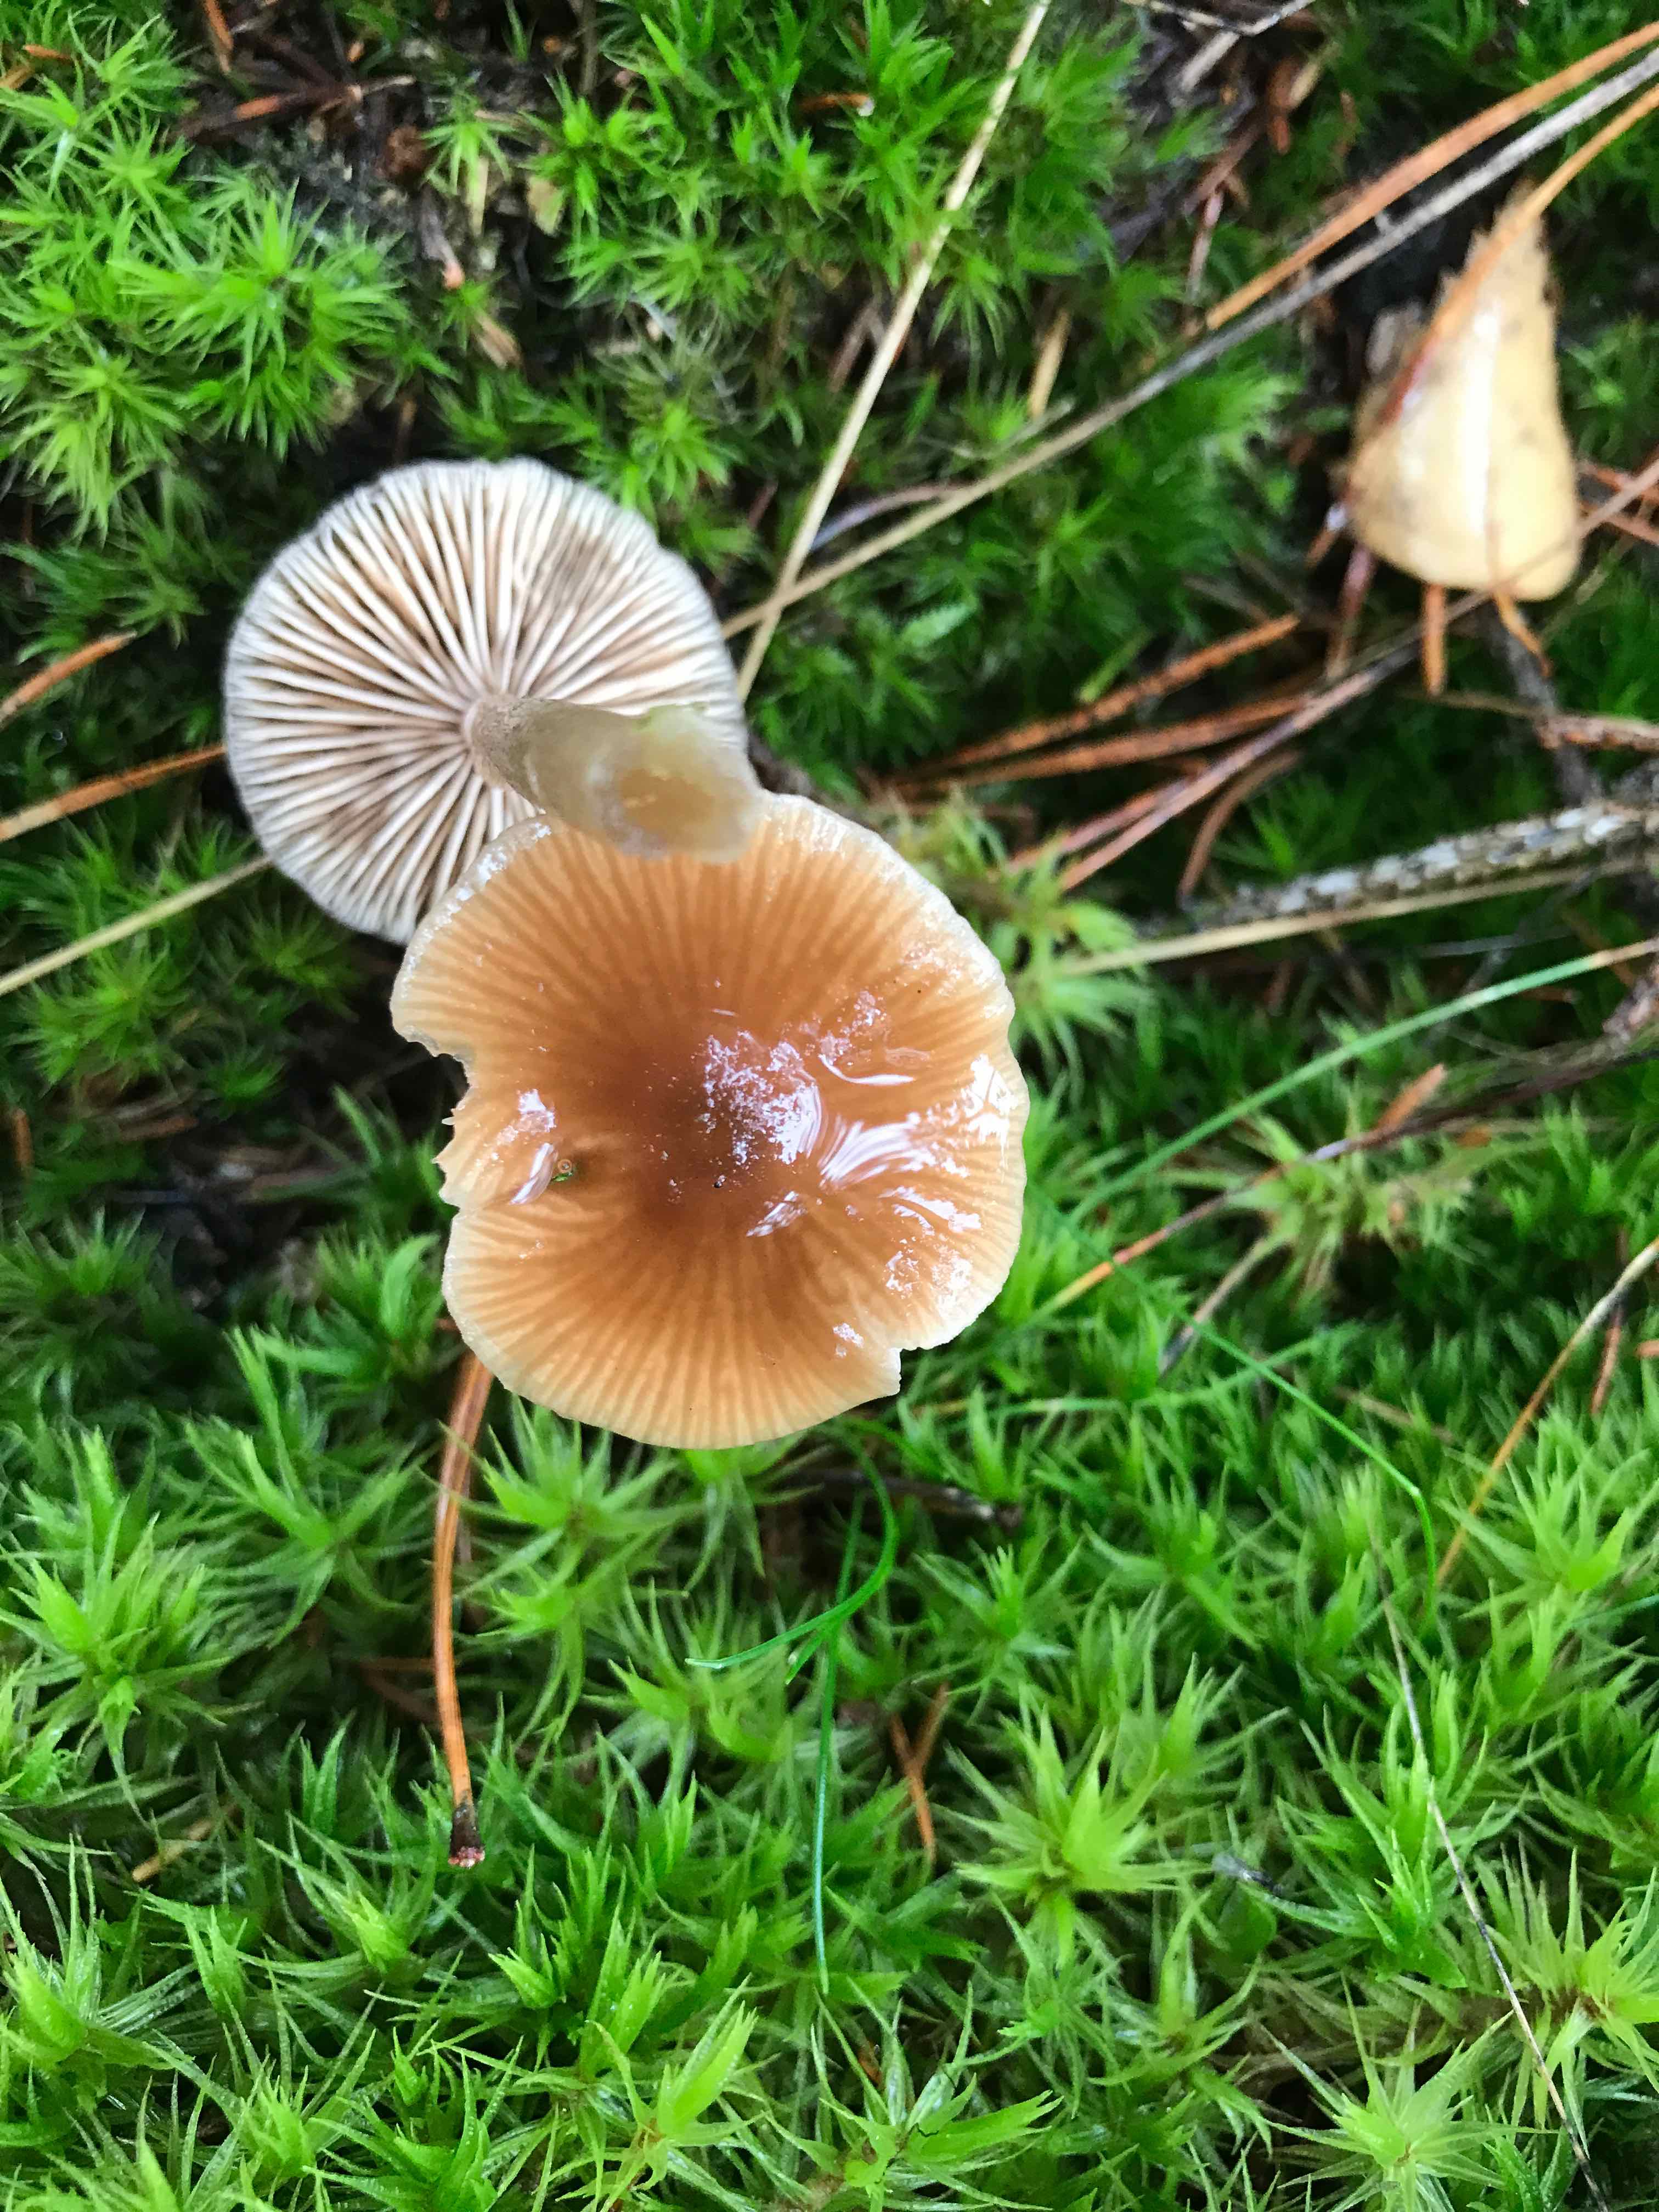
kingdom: Fungi
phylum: Basidiomycota
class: Agaricomycetes
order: Agaricales
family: Entolomataceae
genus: Entoloma
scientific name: Entoloma cetratum
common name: voks-rødblad
